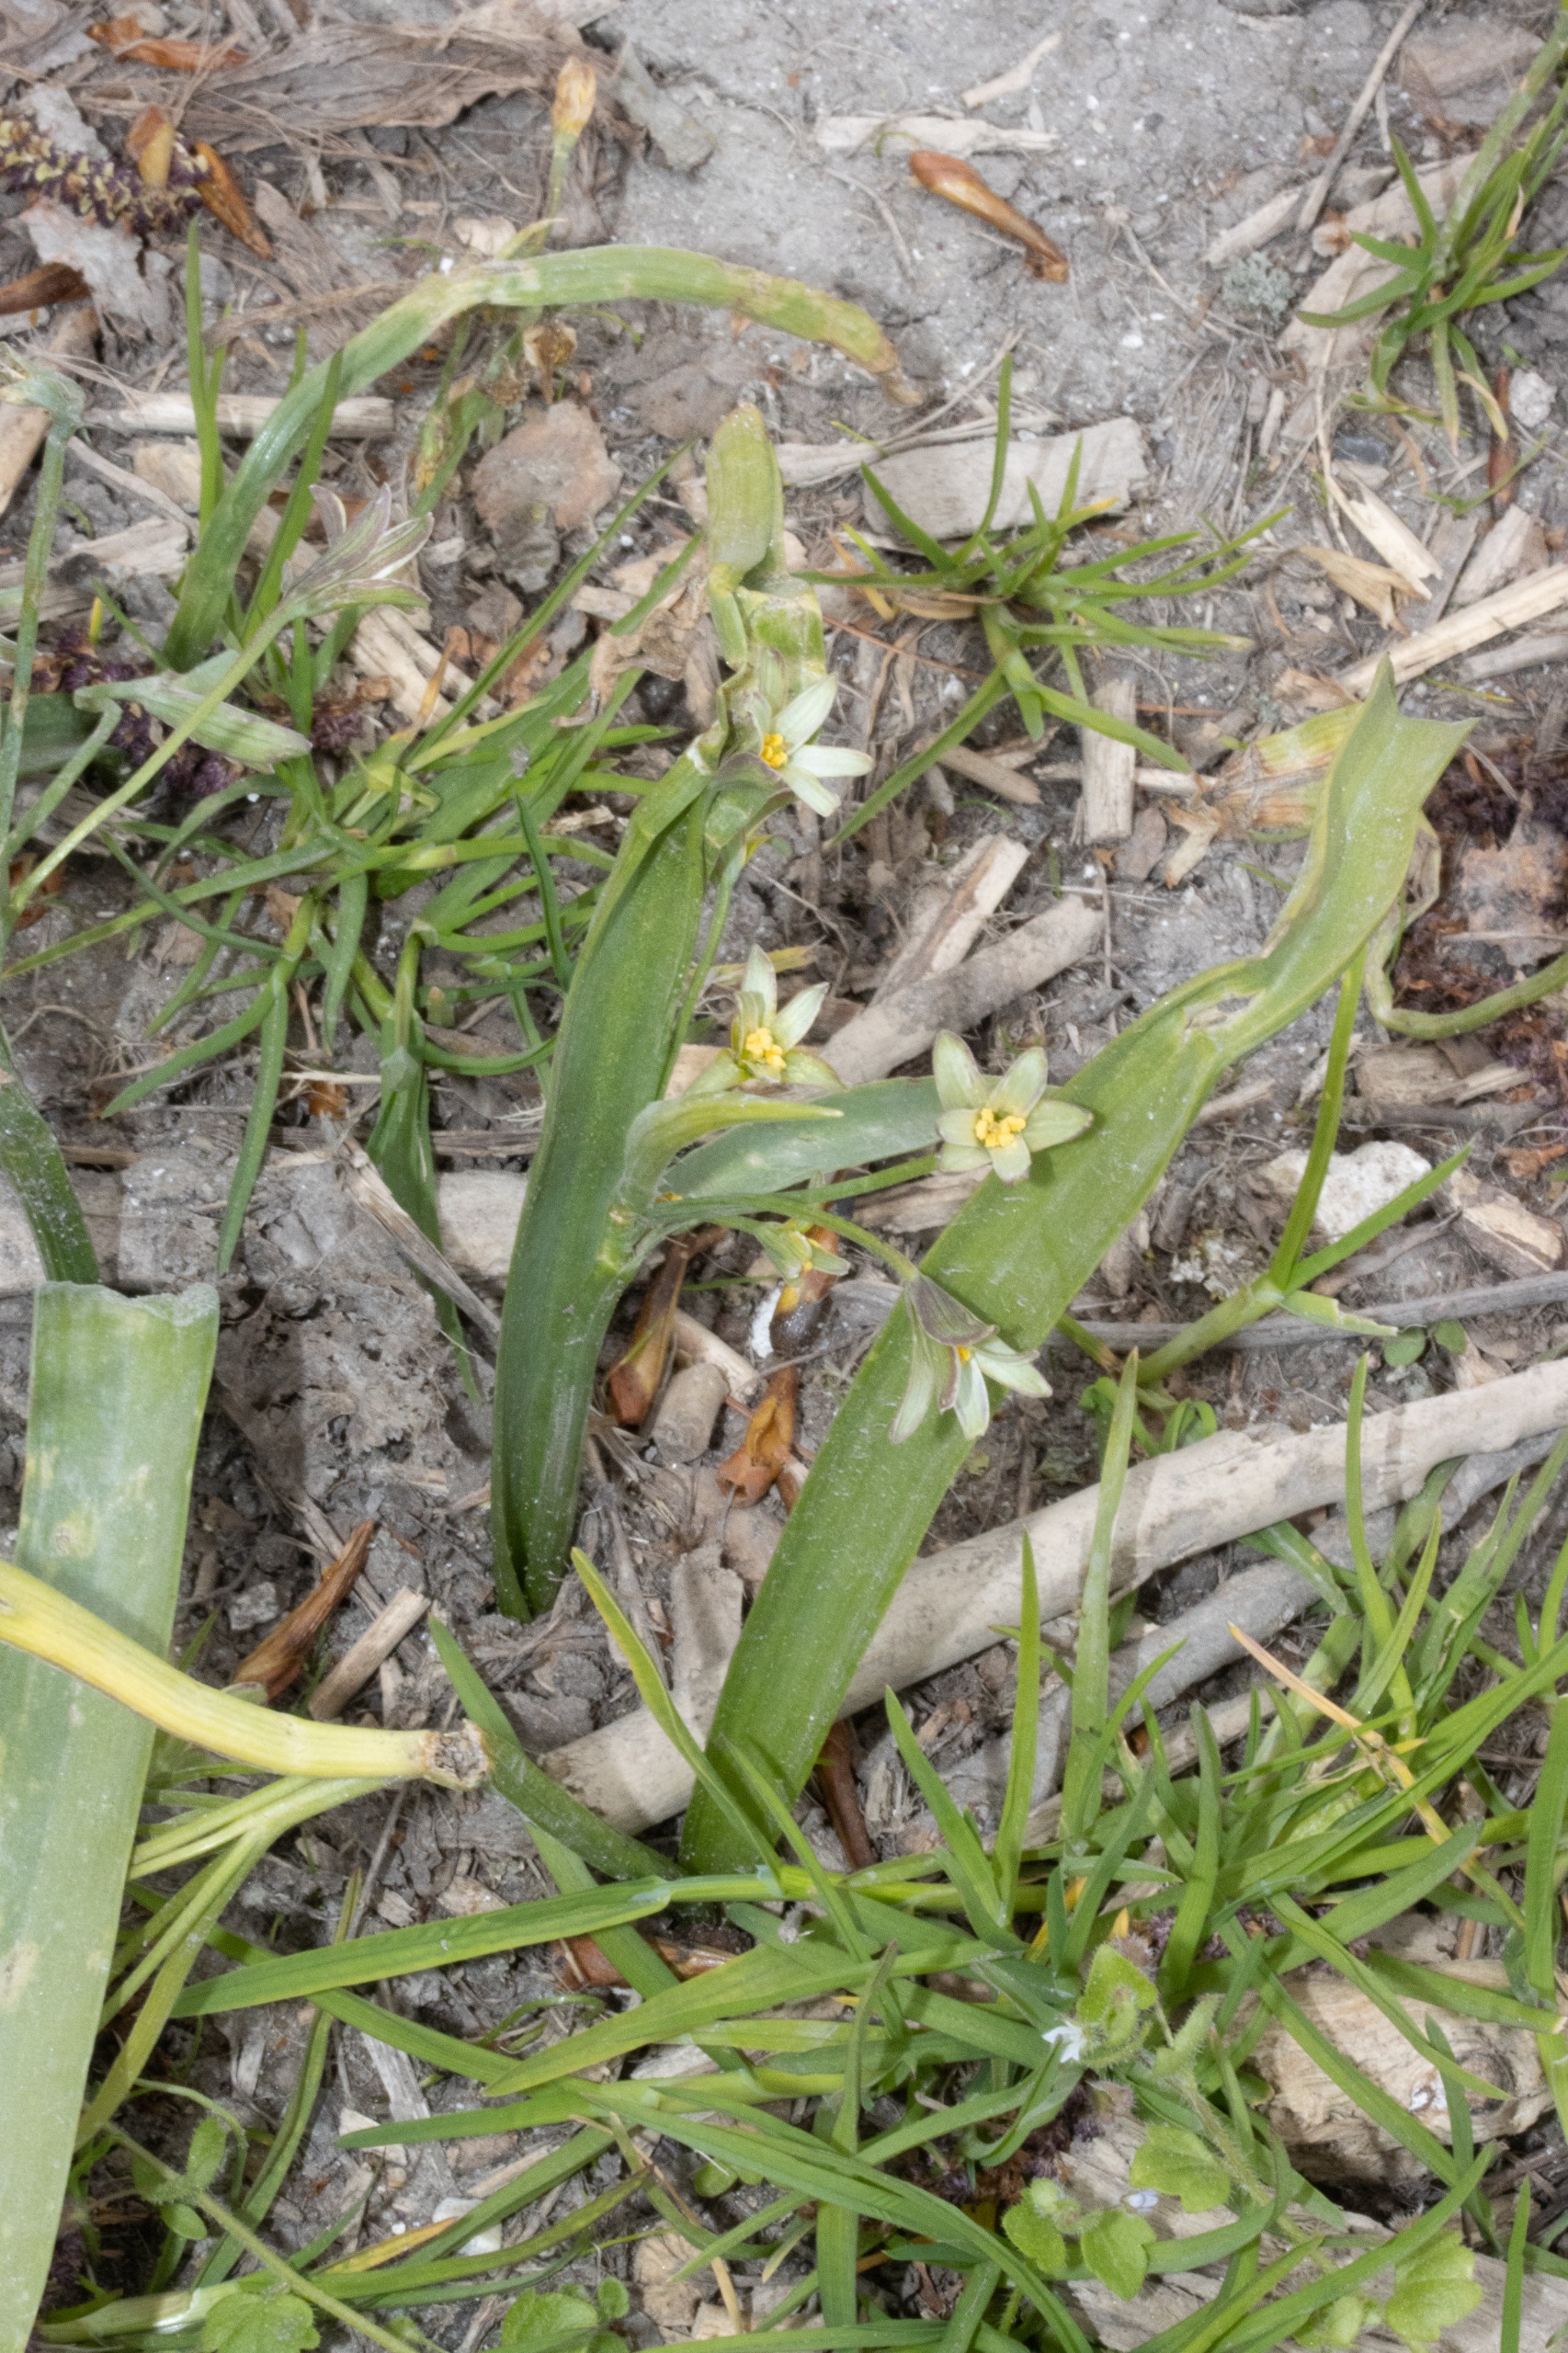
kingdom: Plantae
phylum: Tracheophyta
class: Liliopsida
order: Liliales
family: Liliaceae
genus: Gagea
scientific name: Gagea lutea
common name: Almindelig guldstjerne
